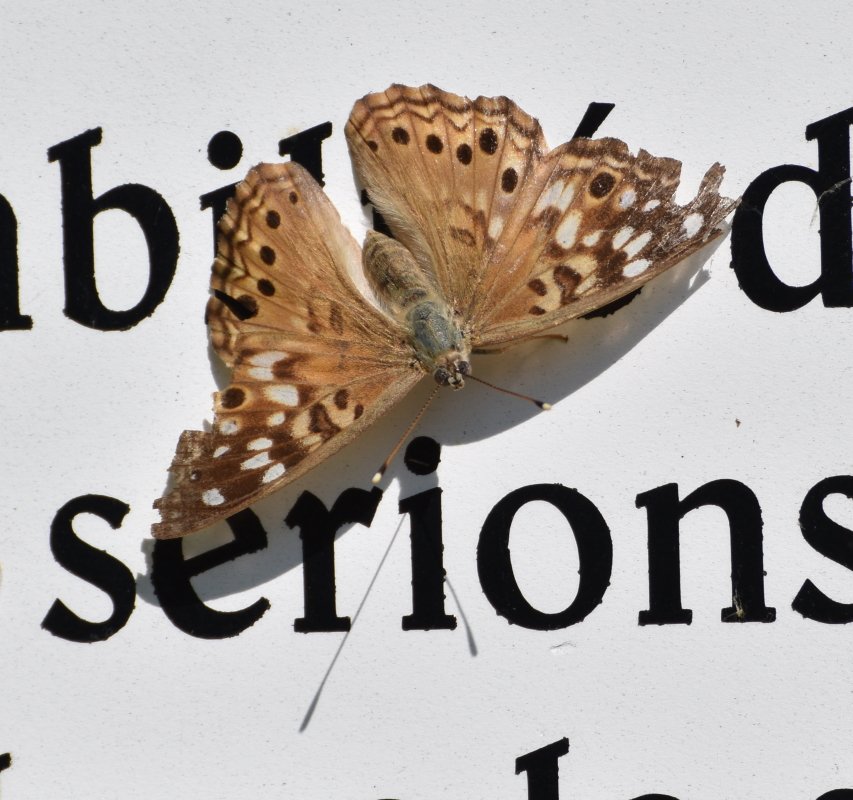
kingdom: Animalia
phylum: Arthropoda
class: Insecta
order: Lepidoptera
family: Nymphalidae
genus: Asterocampa
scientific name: Asterocampa celtis
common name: Hackberry Emperor
